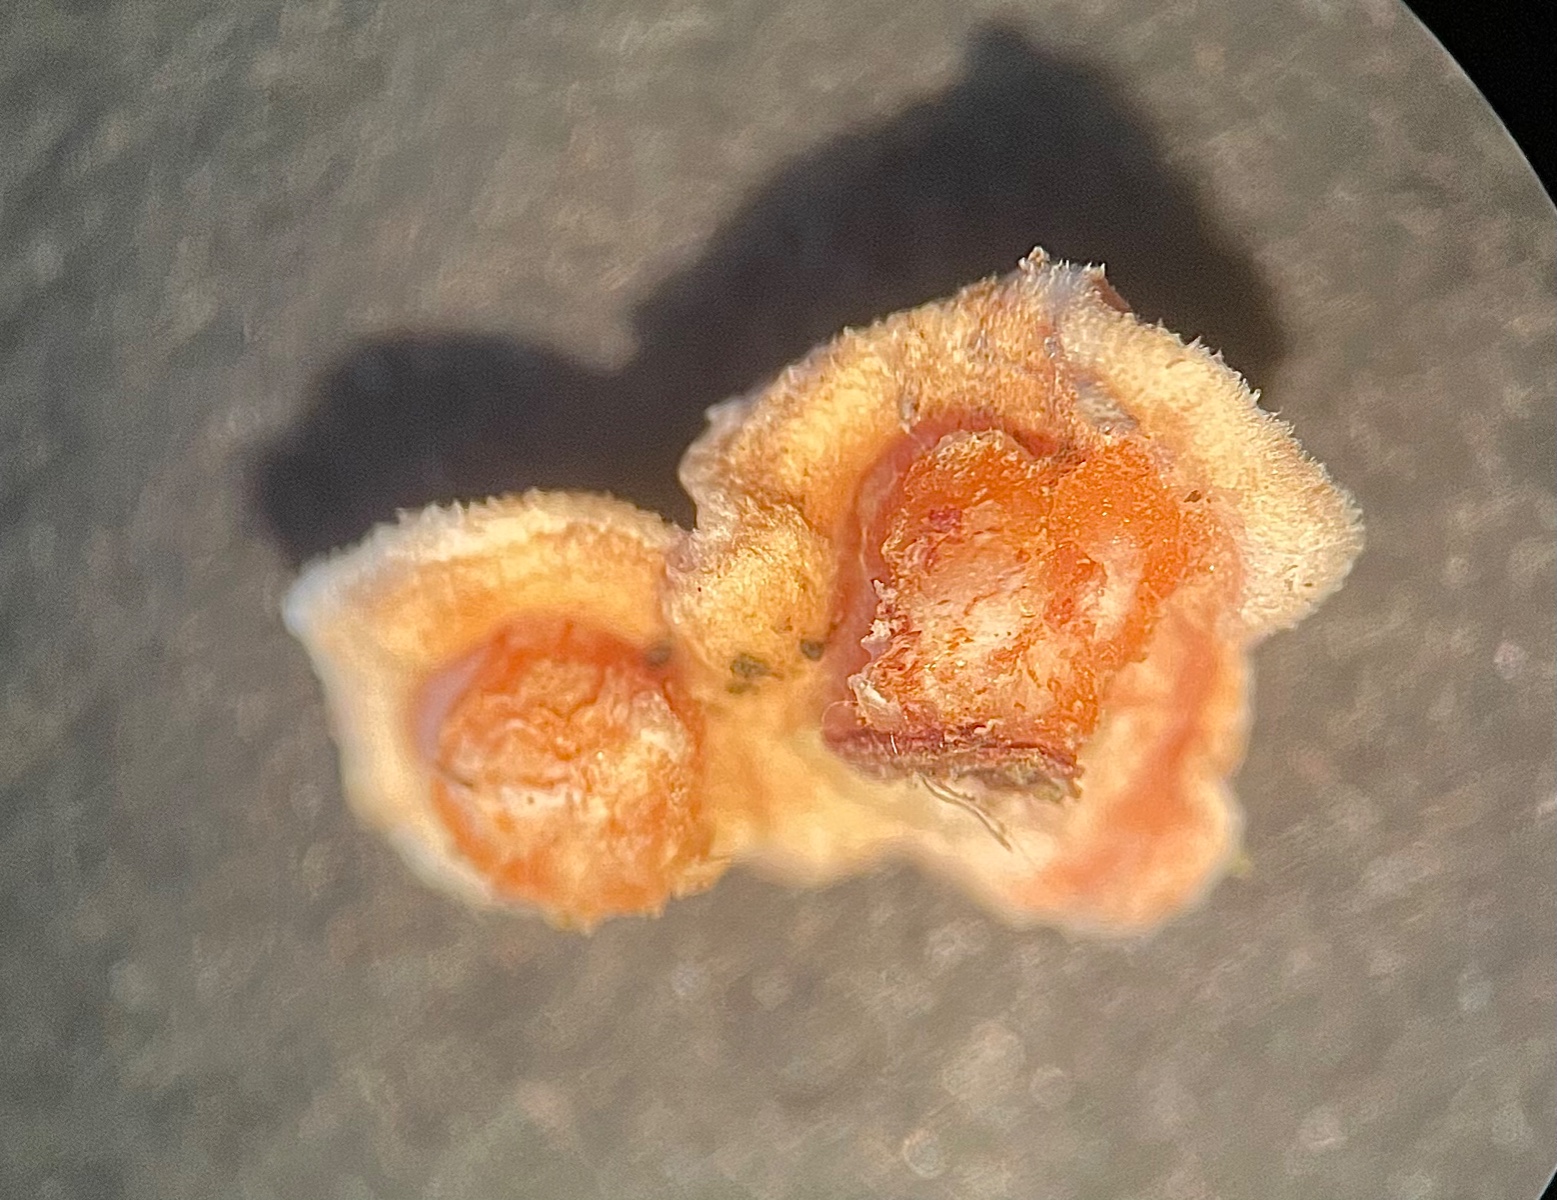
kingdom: Fungi
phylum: Basidiomycota
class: Agaricomycetes
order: Russulales
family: Stereaceae
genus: Aleurodiscus
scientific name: Aleurodiscus amorphus
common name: orange skiveskorpe
